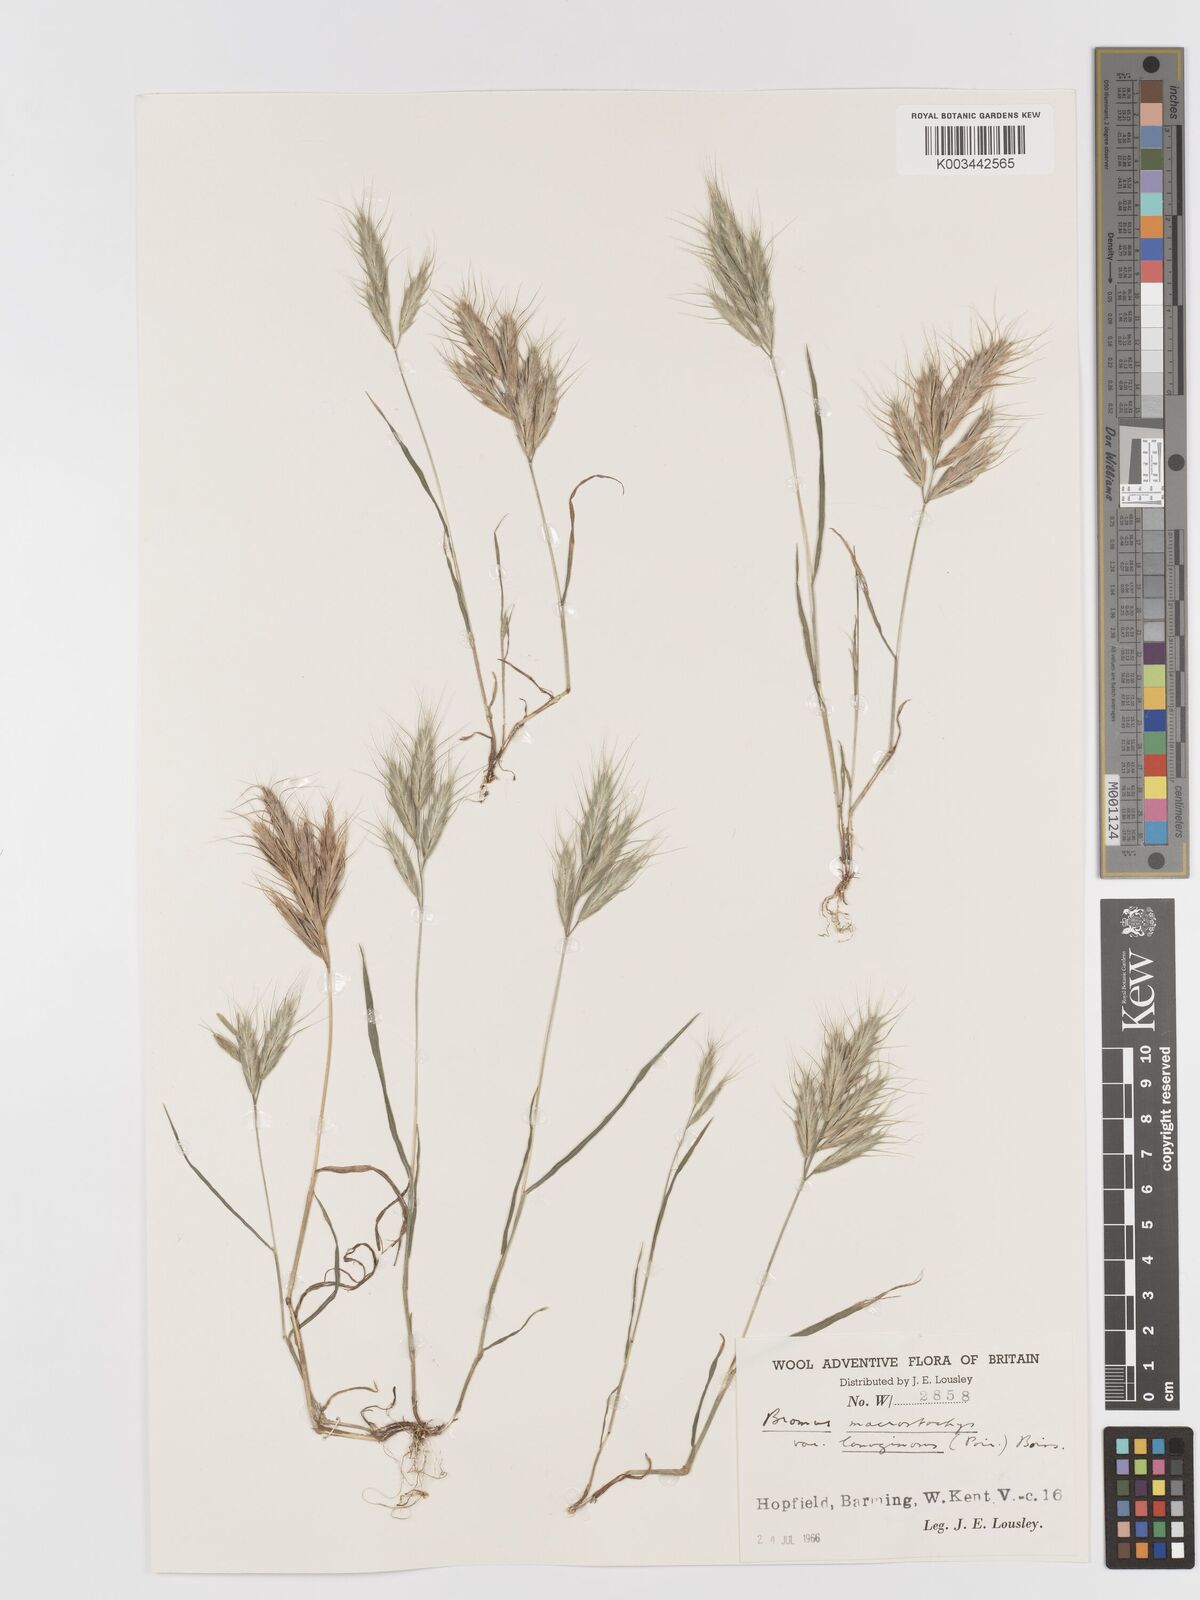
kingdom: Plantae
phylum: Tracheophyta
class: Liliopsida
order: Poales
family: Poaceae
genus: Bromus
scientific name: Bromus lanceolatus
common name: Mediterranean brome
